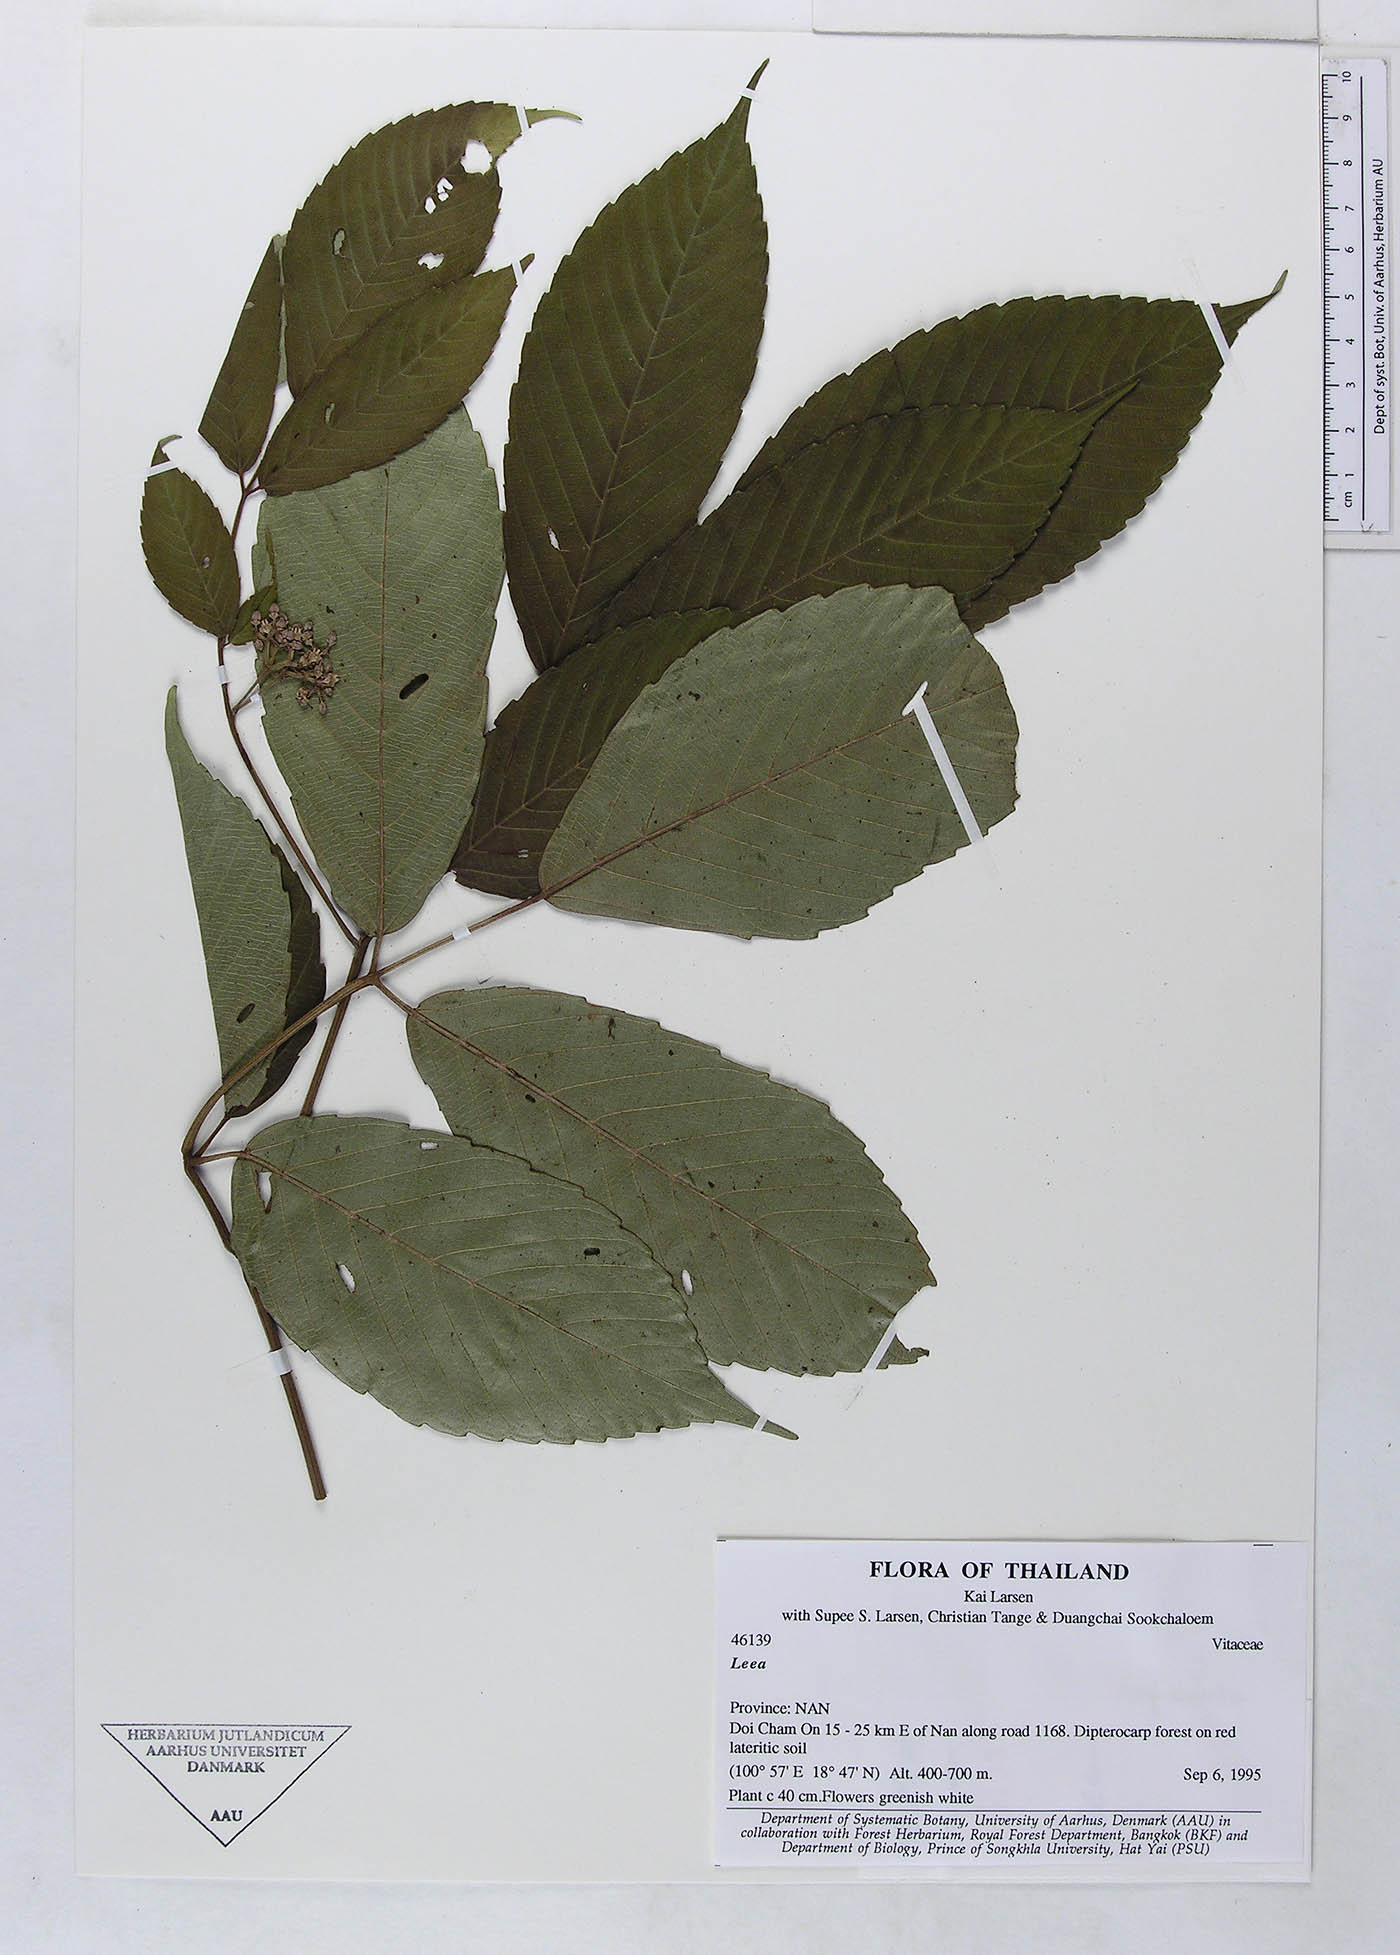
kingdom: Plantae
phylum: Tracheophyta
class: Magnoliopsida
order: Vitales
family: Vitaceae
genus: Leea
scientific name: Leea asiatica
